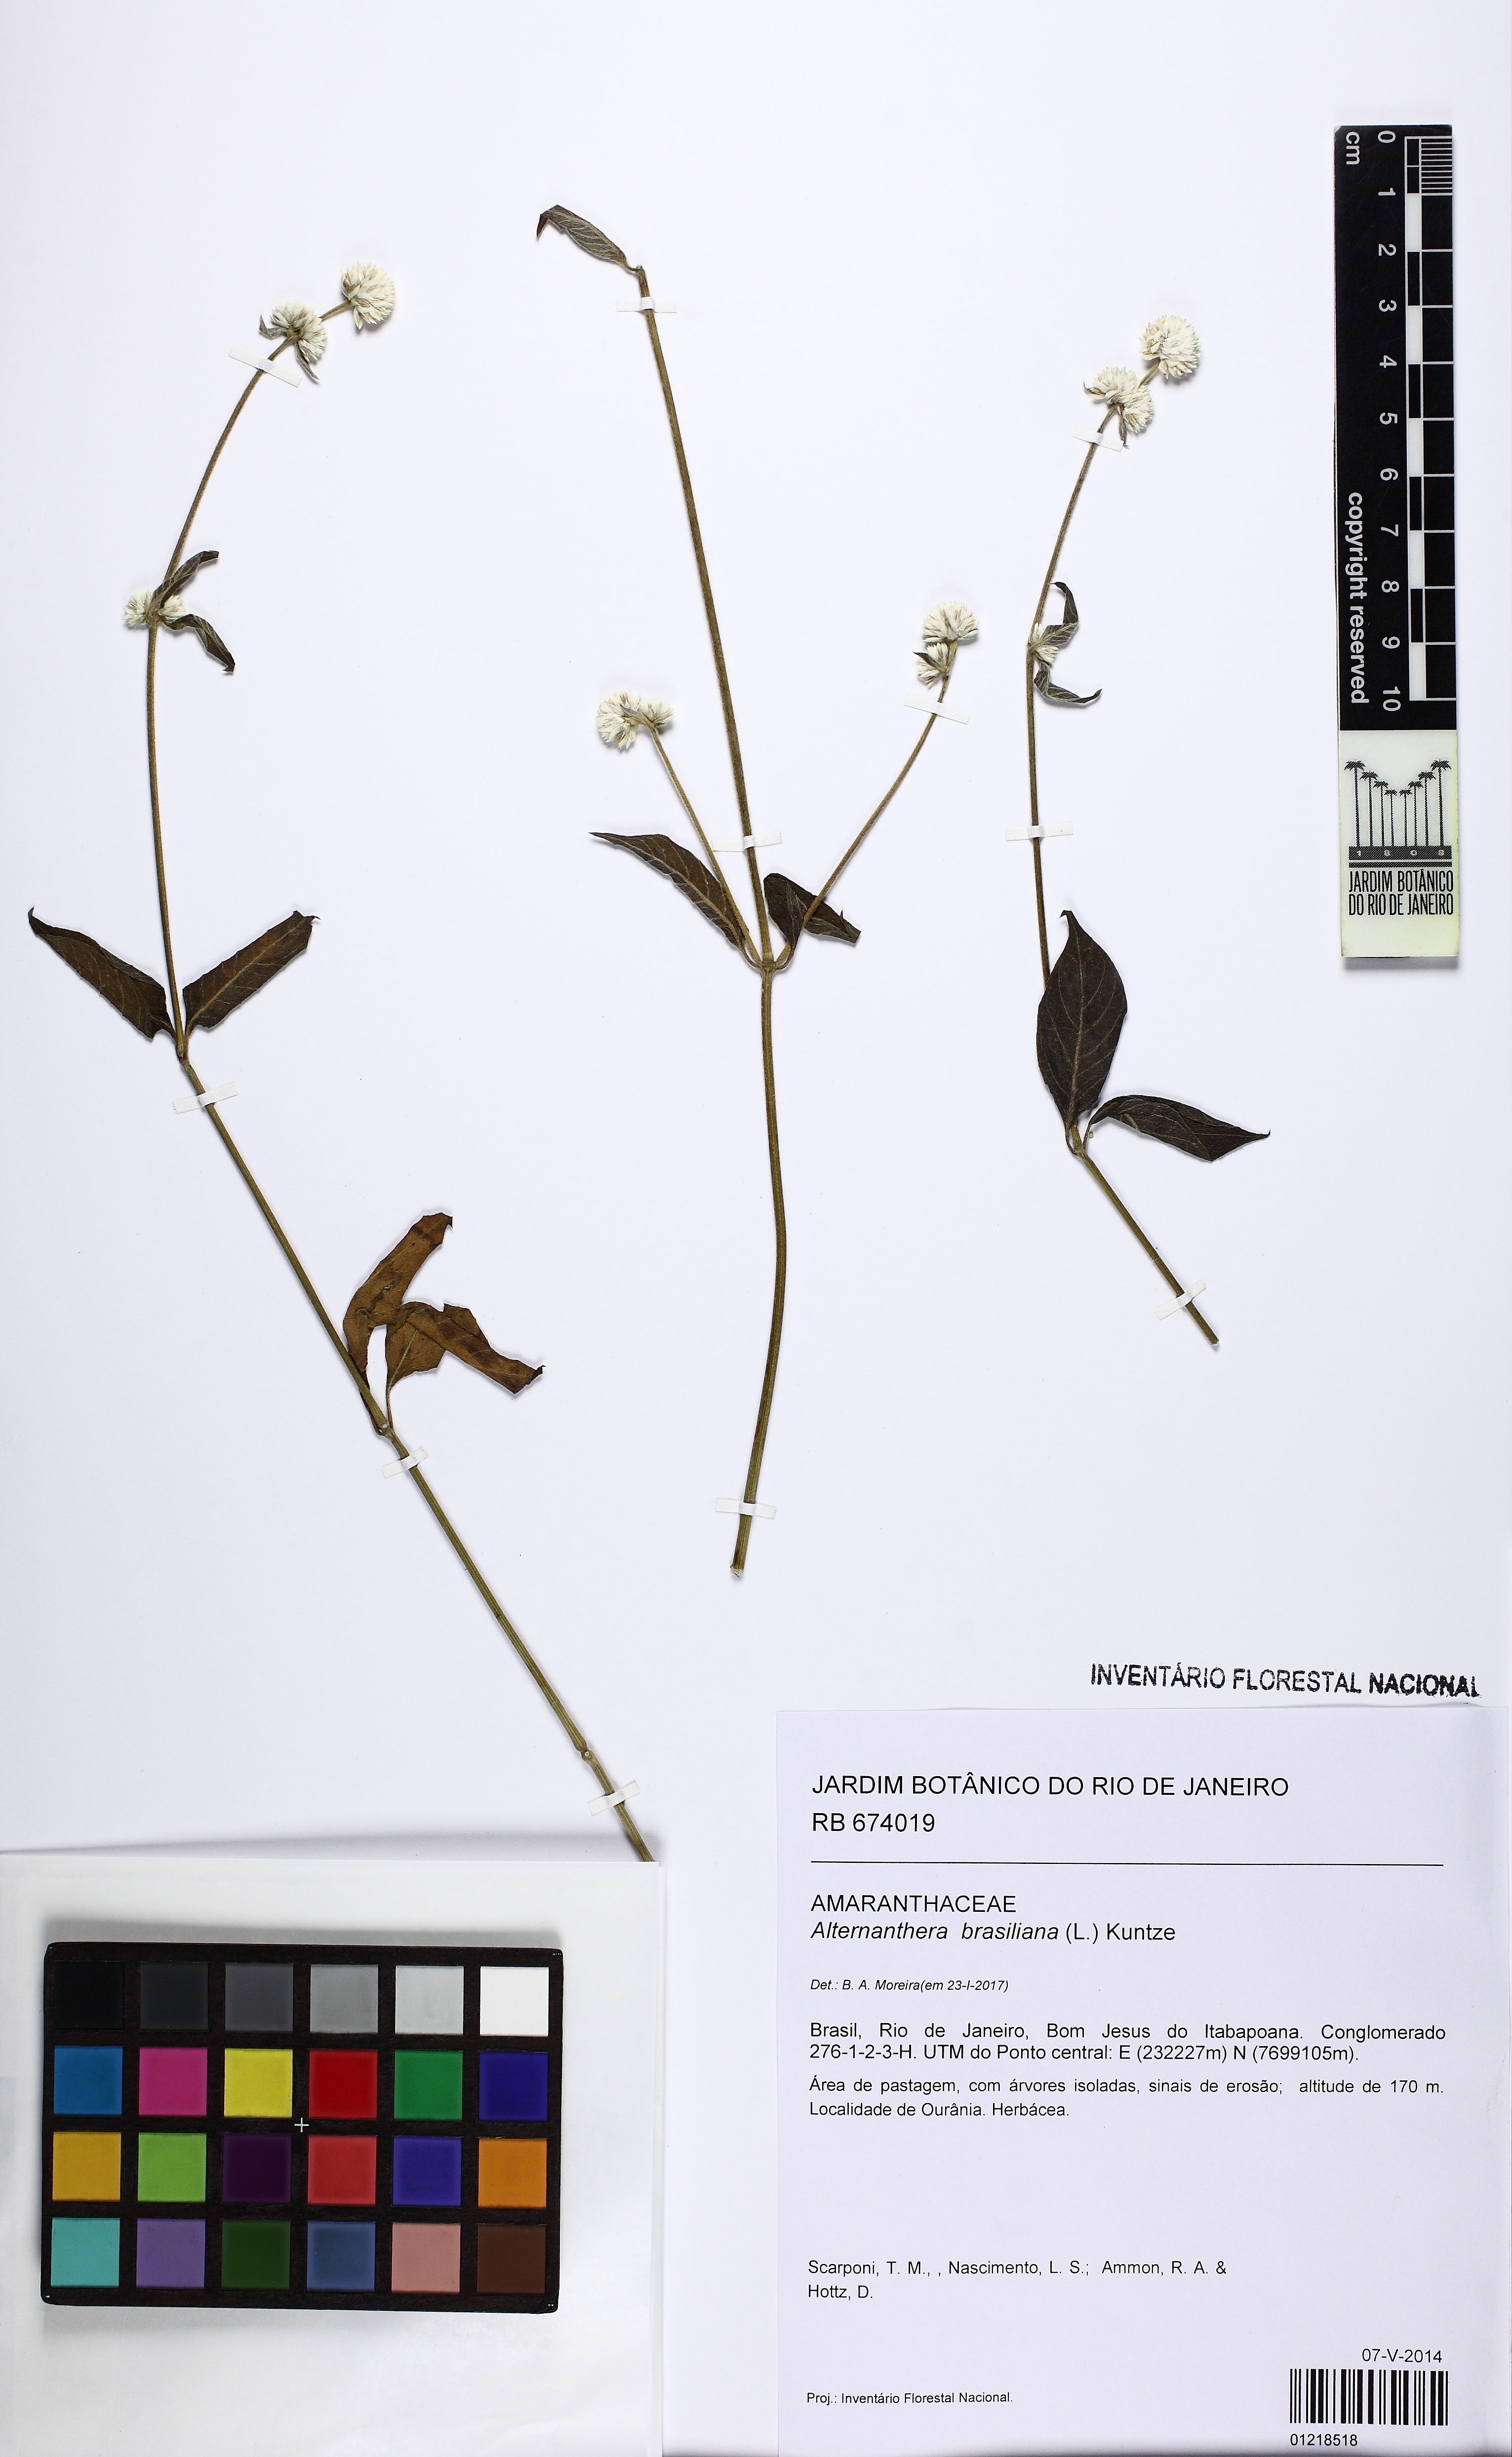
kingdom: Plantae
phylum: Tracheophyta
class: Magnoliopsida
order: Caryophyllales
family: Amaranthaceae
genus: Alternanthera
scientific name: Alternanthera brasiliana
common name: Brazilian joyweed
